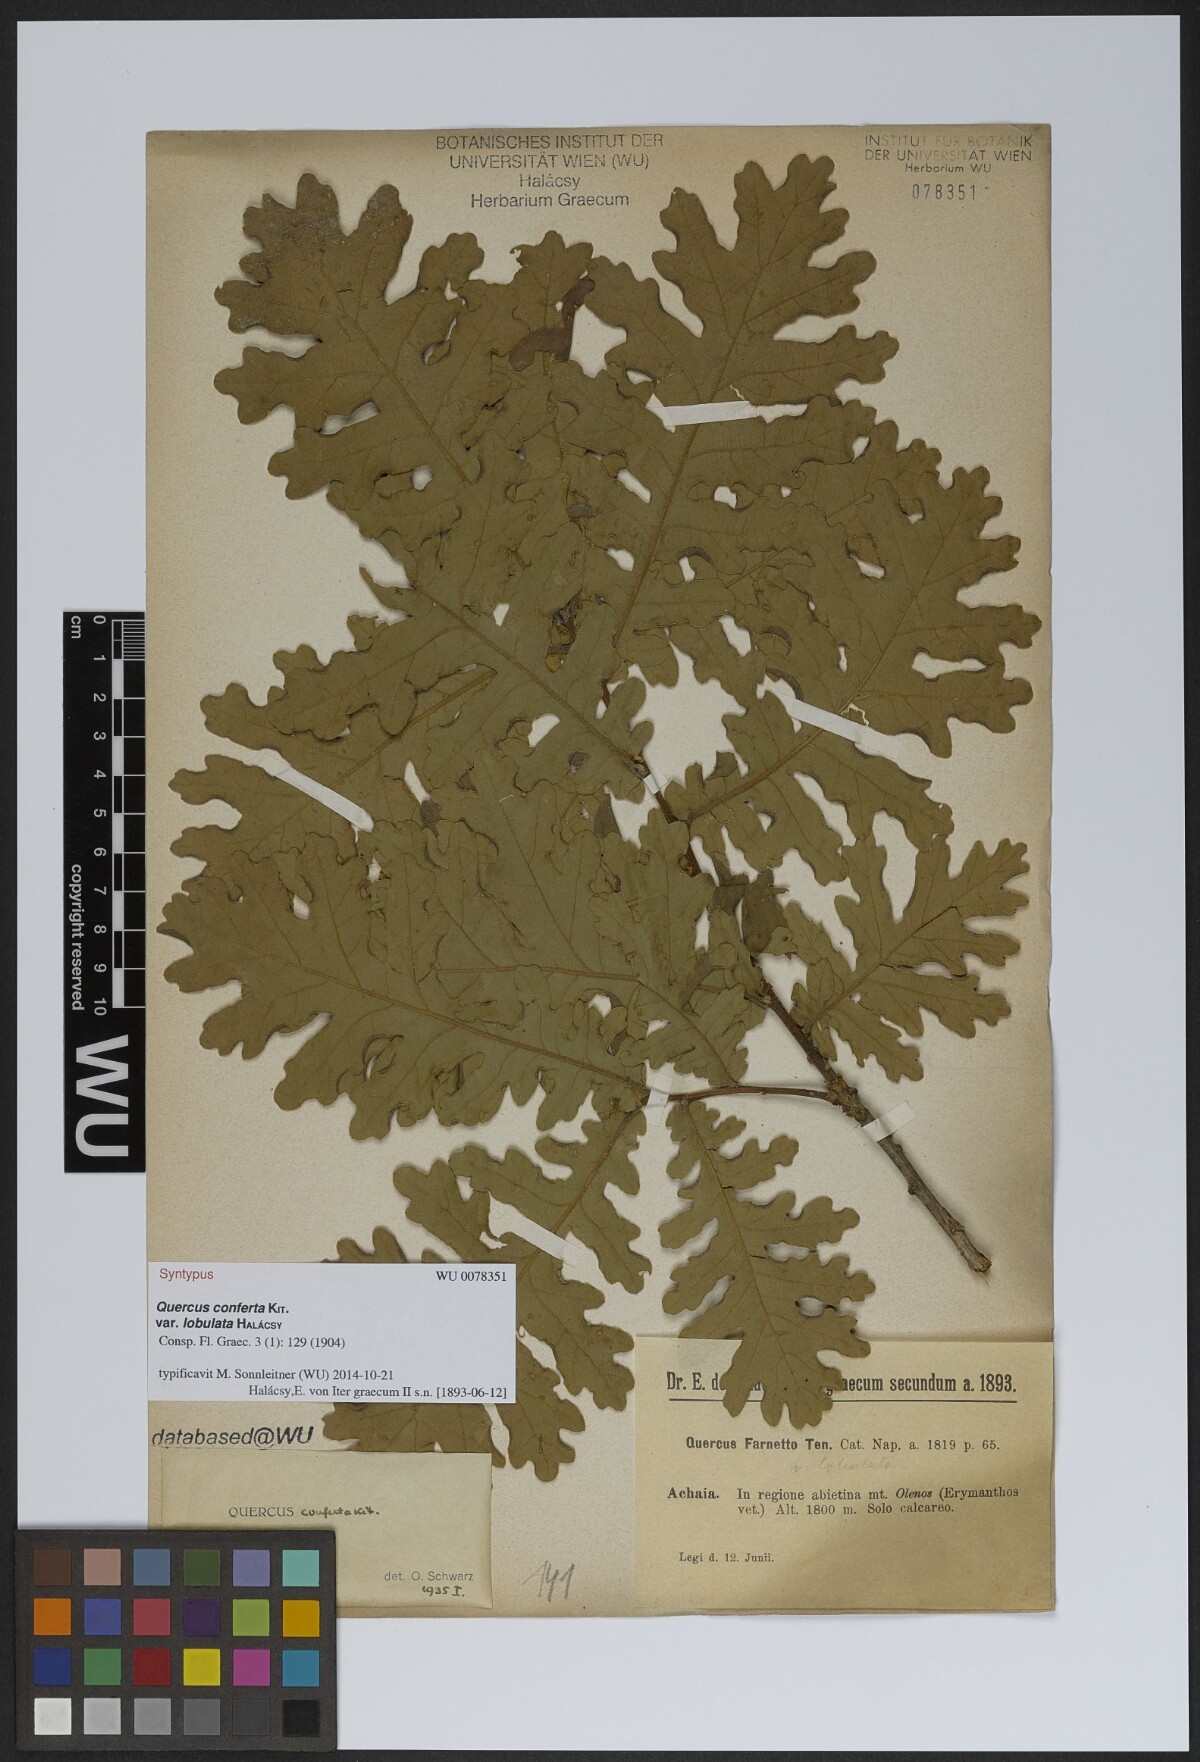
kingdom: Plantae
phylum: Tracheophyta
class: Magnoliopsida
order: Fagales
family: Fagaceae
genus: Quercus
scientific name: Quercus conferta
